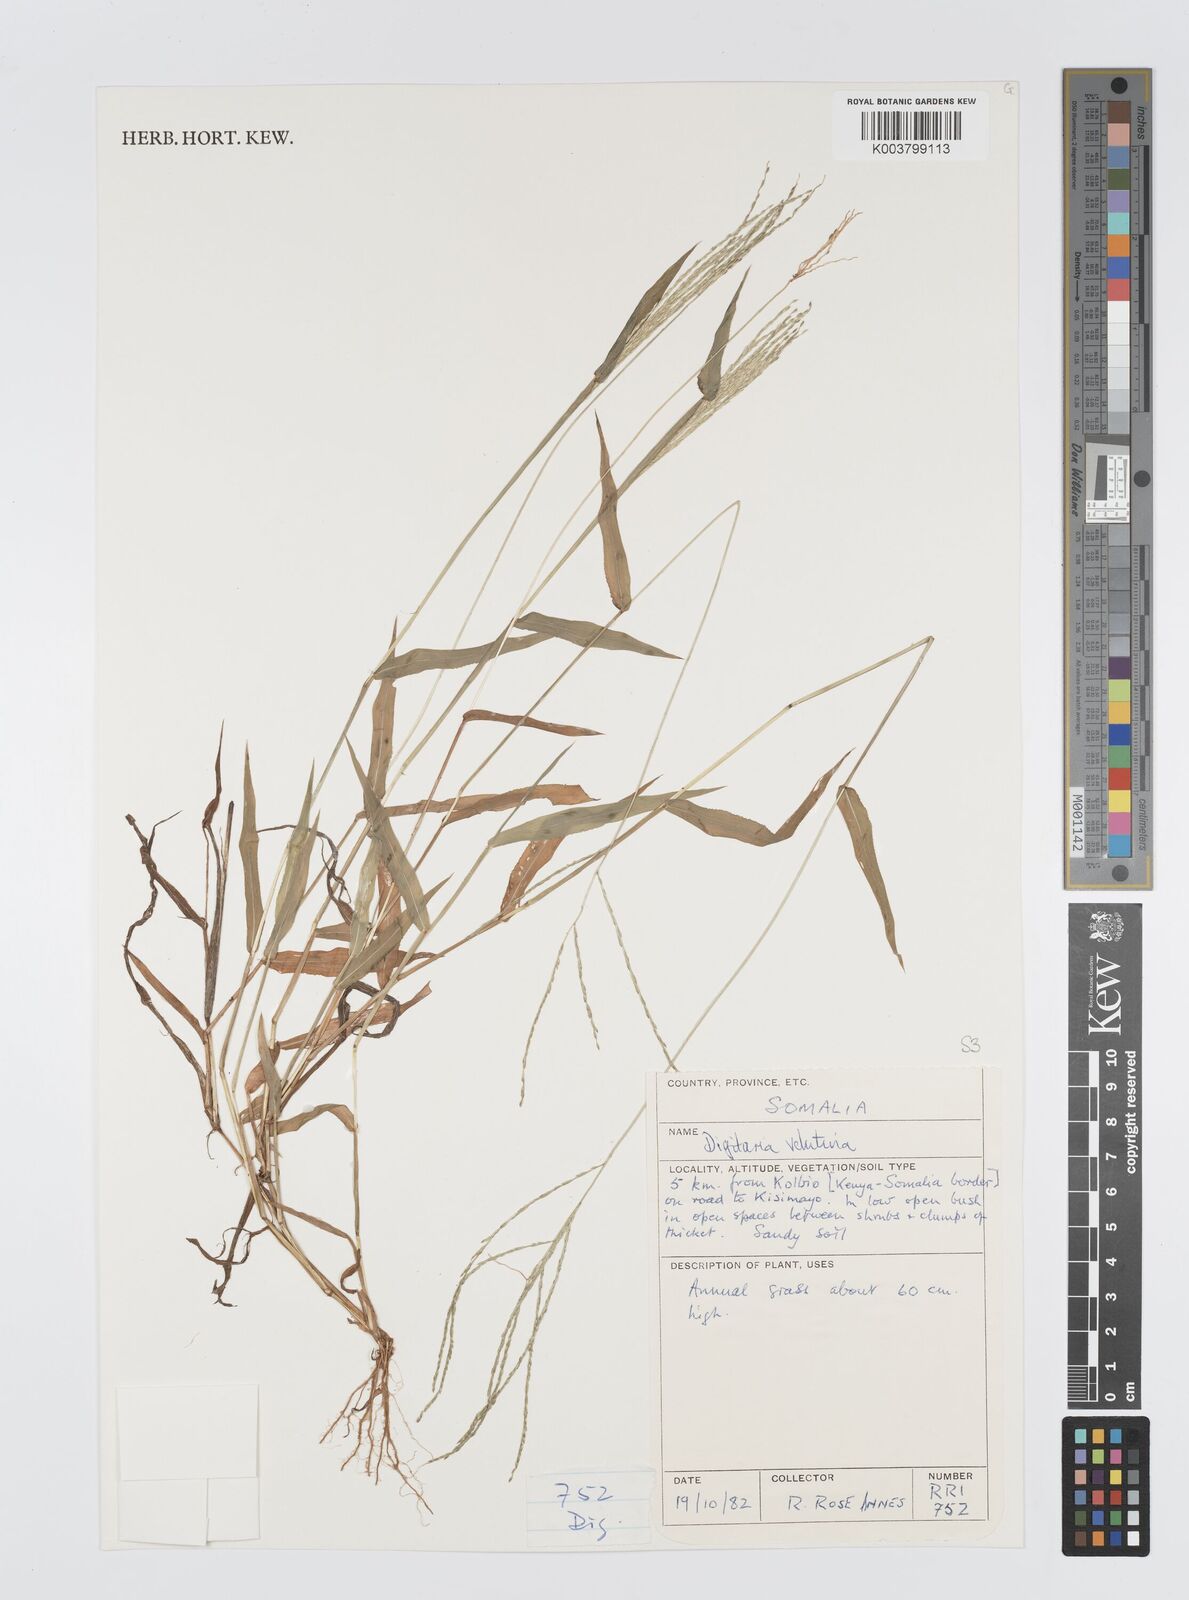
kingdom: Plantae
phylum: Tracheophyta
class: Liliopsida
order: Poales
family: Poaceae
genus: Digitaria
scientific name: Digitaria velutina
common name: Long-plume finger grass
